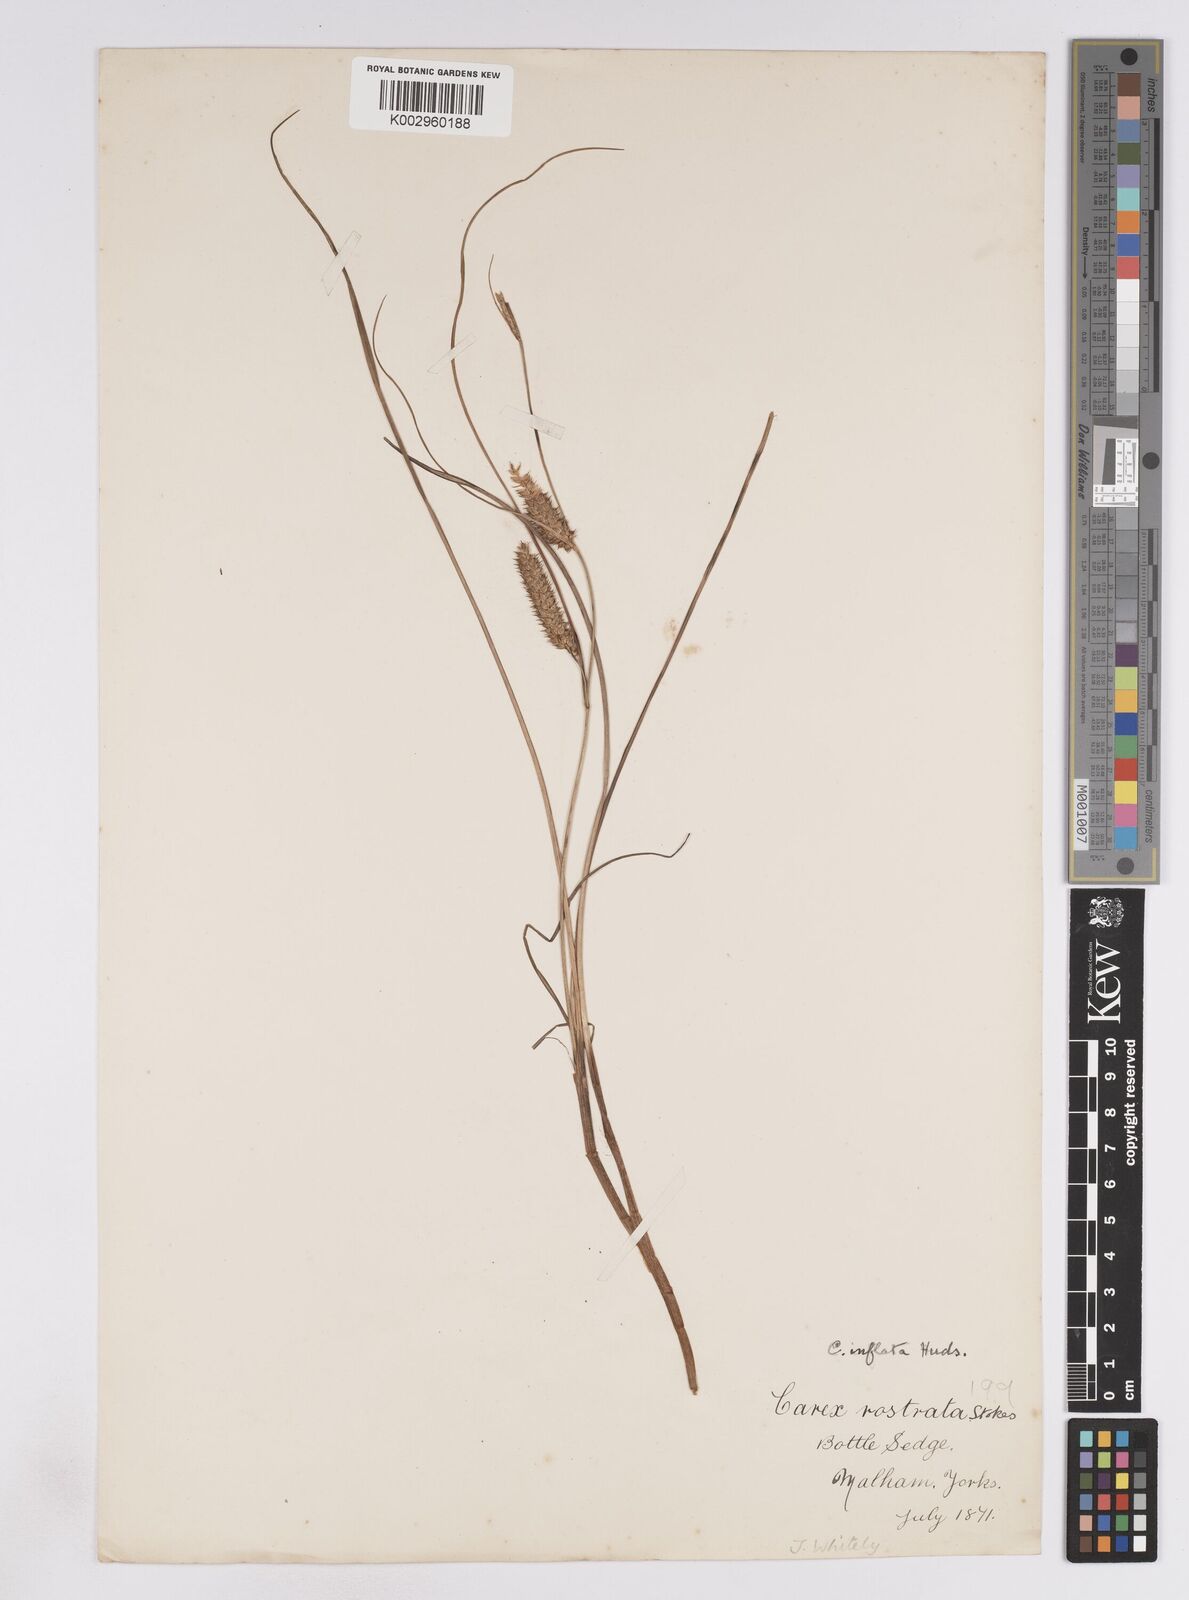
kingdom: Plantae
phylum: Tracheophyta
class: Liliopsida
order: Poales
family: Cyperaceae
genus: Carex
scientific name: Carex vesicaria
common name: Bladder-sedge
